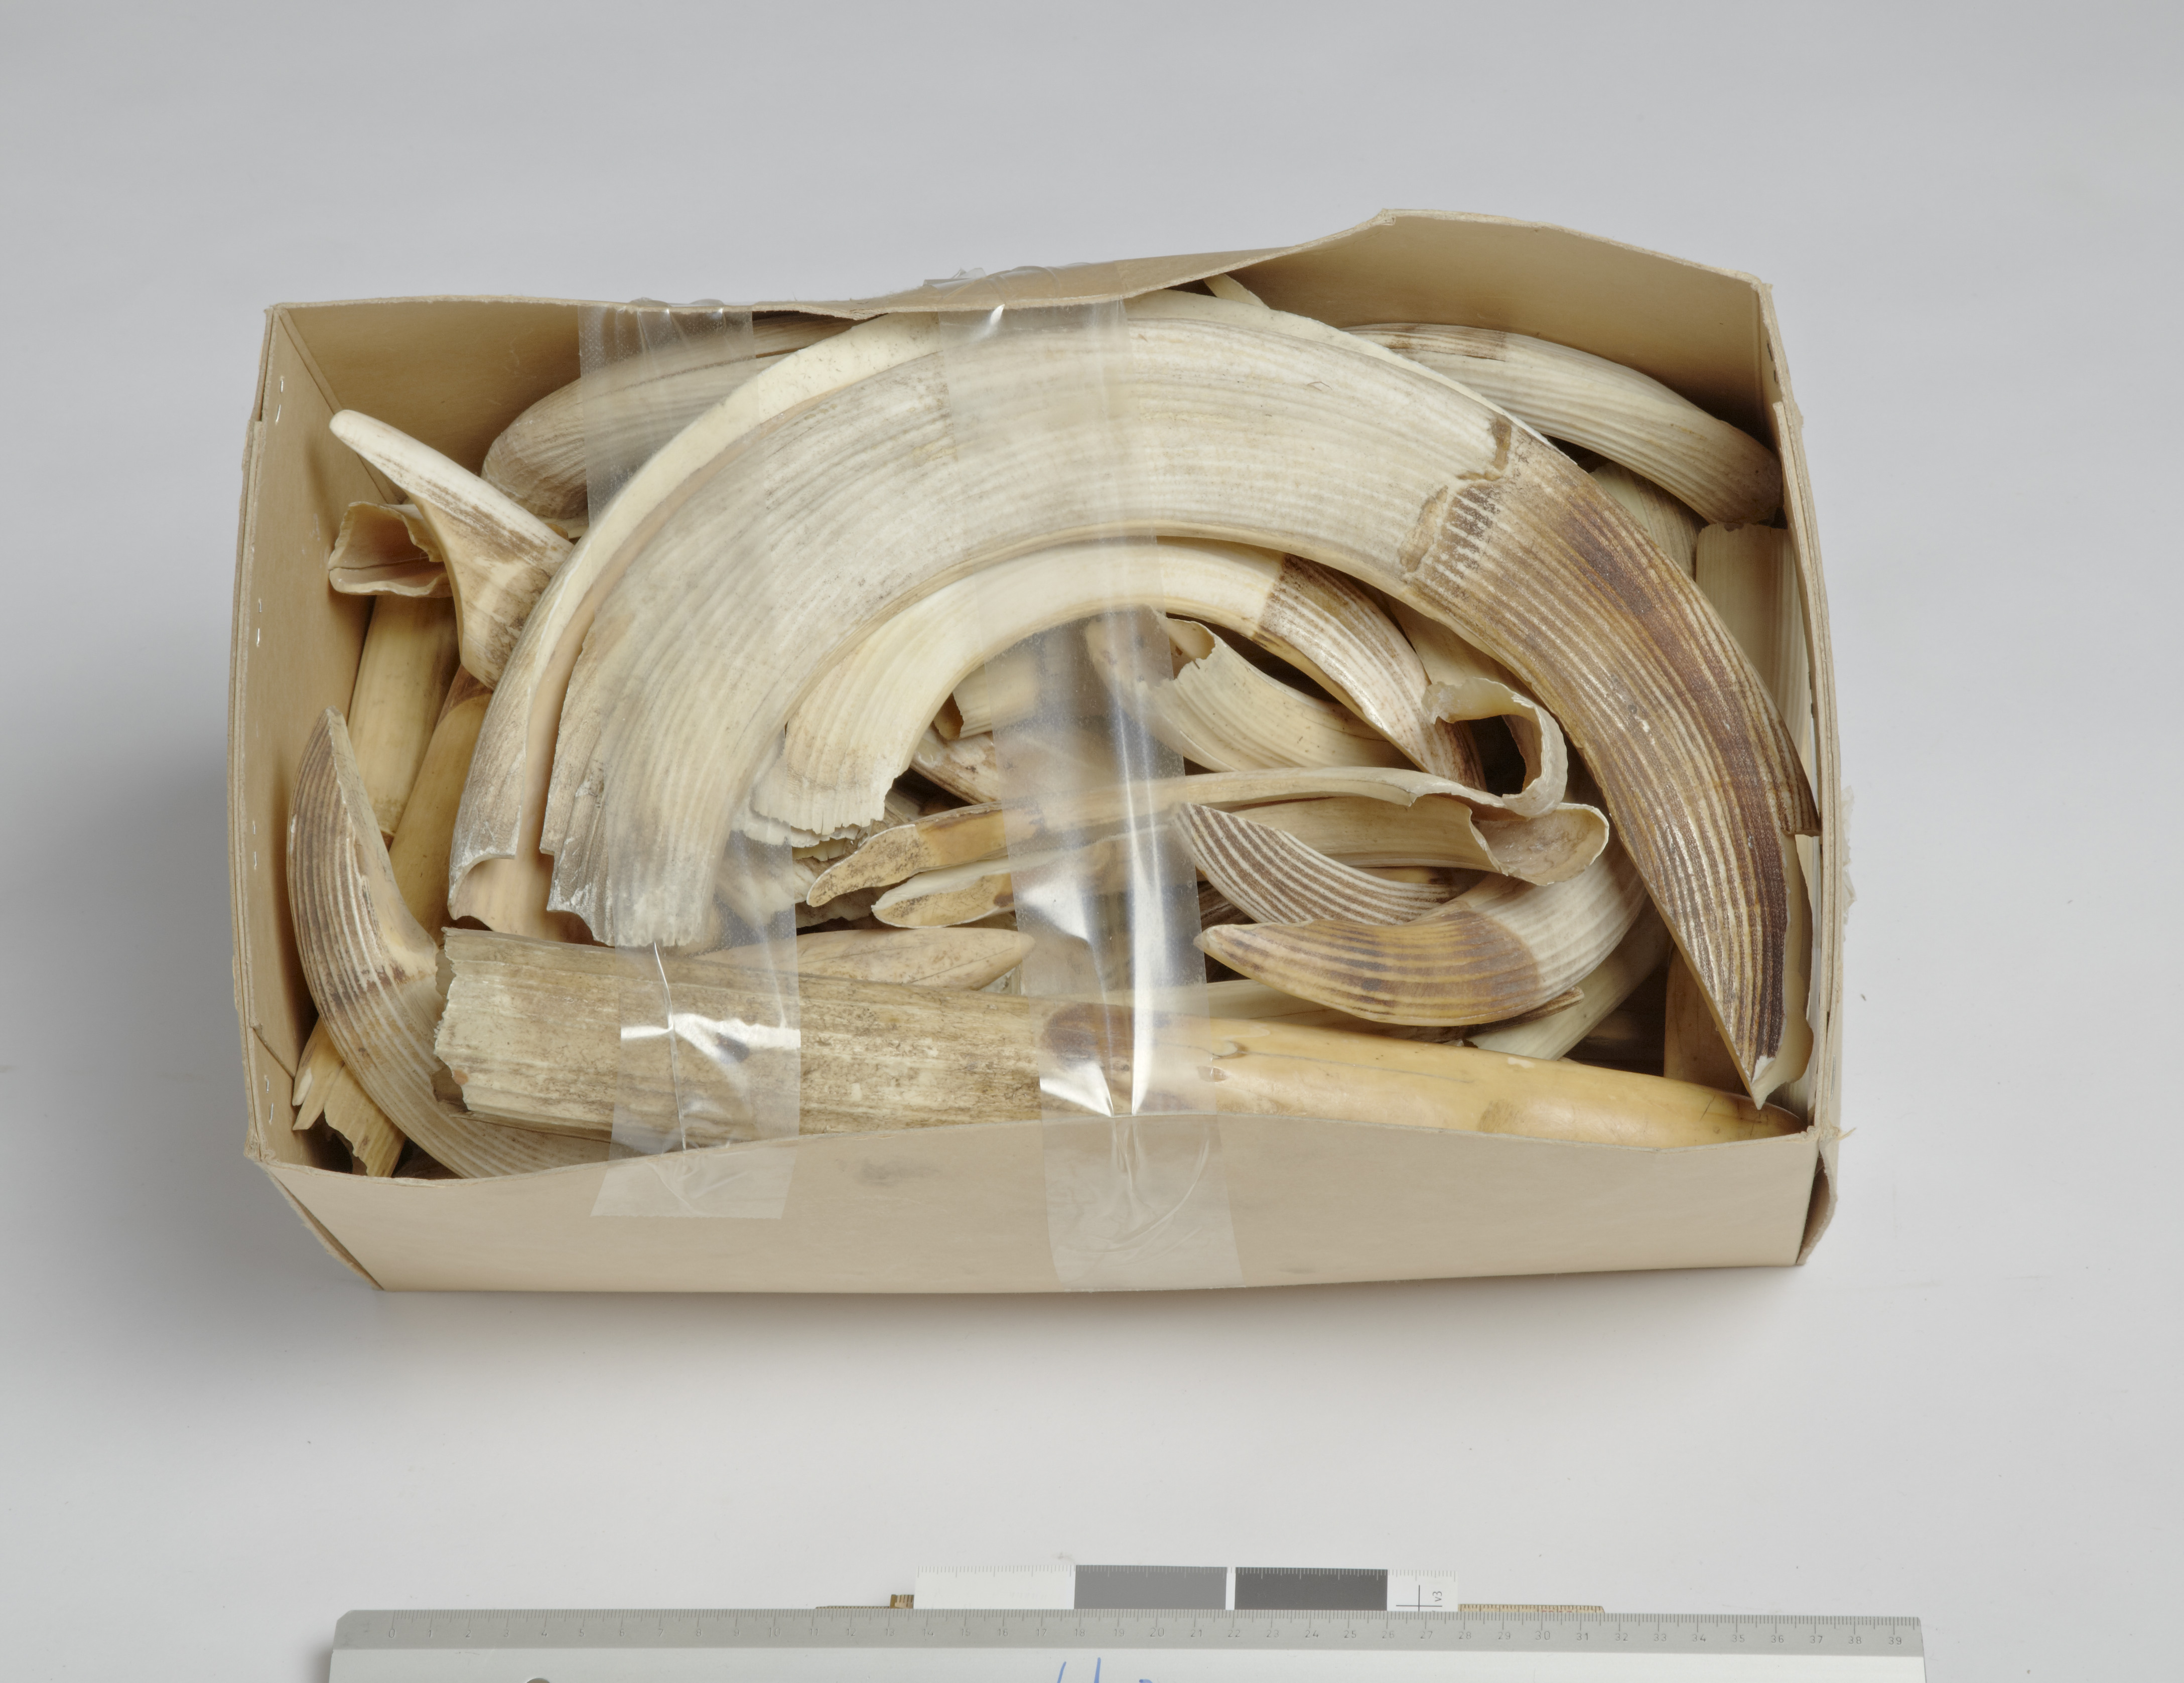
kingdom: Animalia
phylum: Chordata
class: Mammalia
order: Artiodactyla
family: Hippopotamidae
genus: Hippopotamus
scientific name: Hippopotamus amphibius
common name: Common hippopotamus
